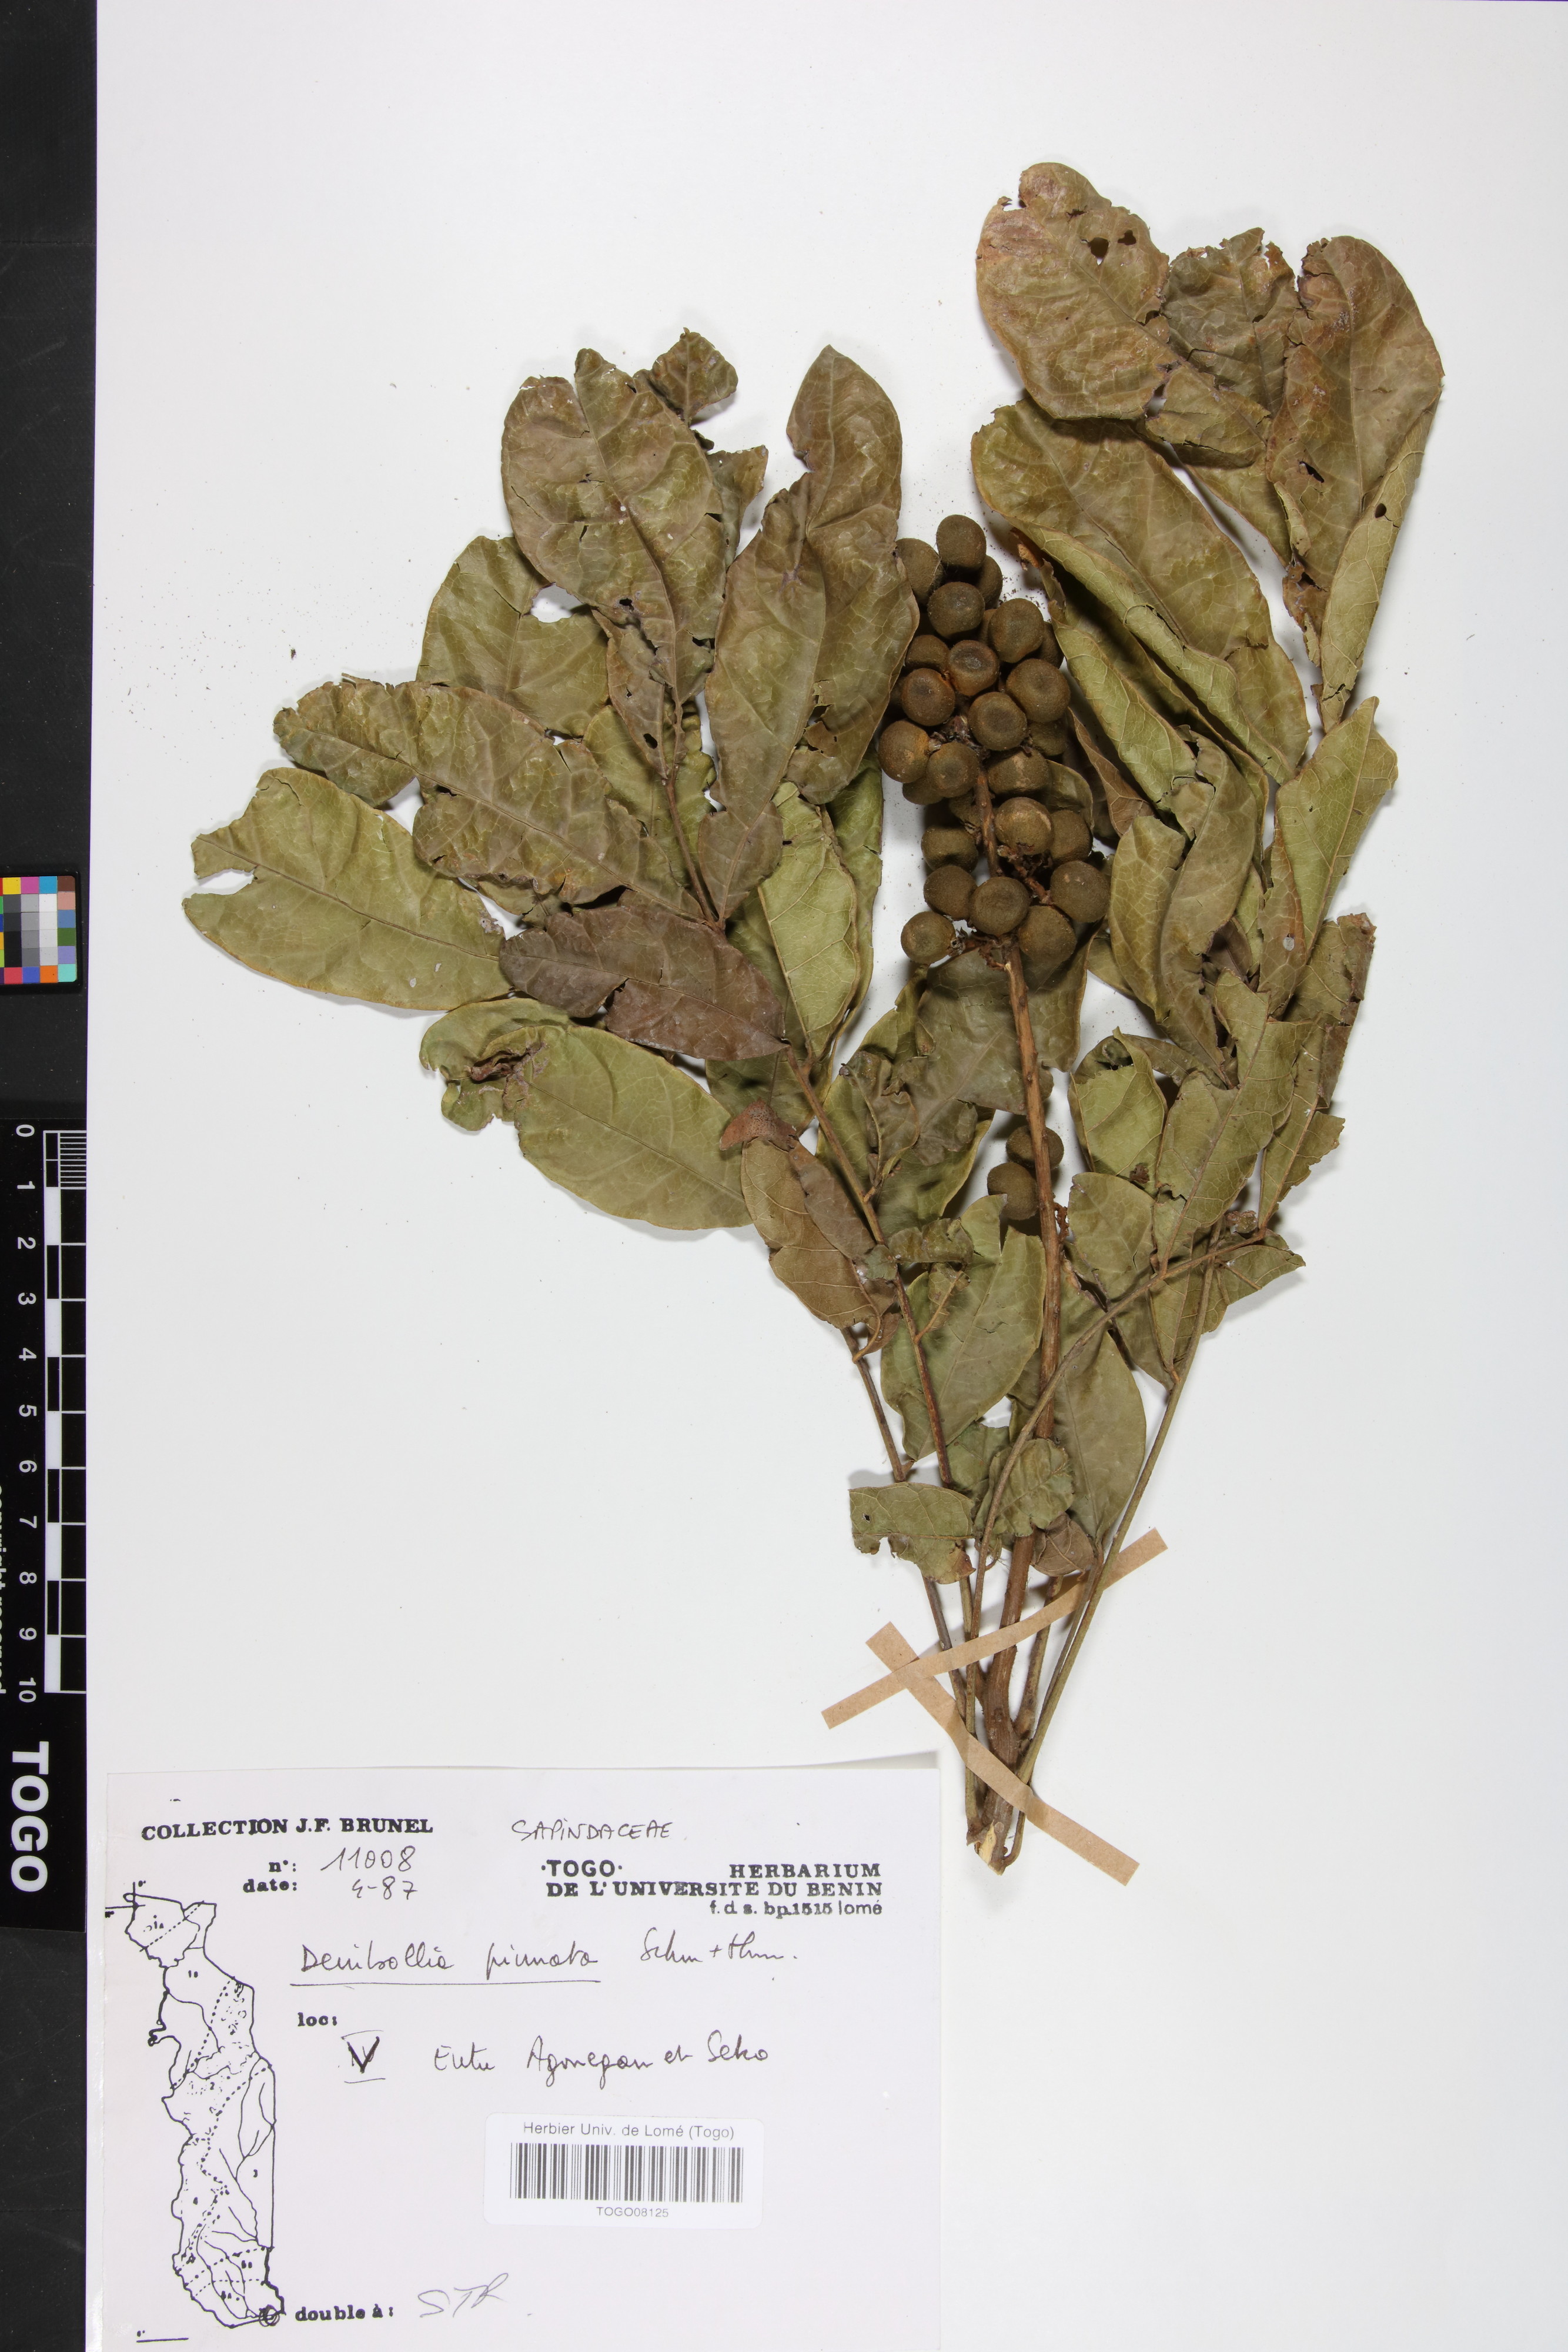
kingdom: Plantae
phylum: Tracheophyta
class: Magnoliopsida
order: Sapindales
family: Sapindaceae
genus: Deinbollia
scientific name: Deinbollia pinnata
